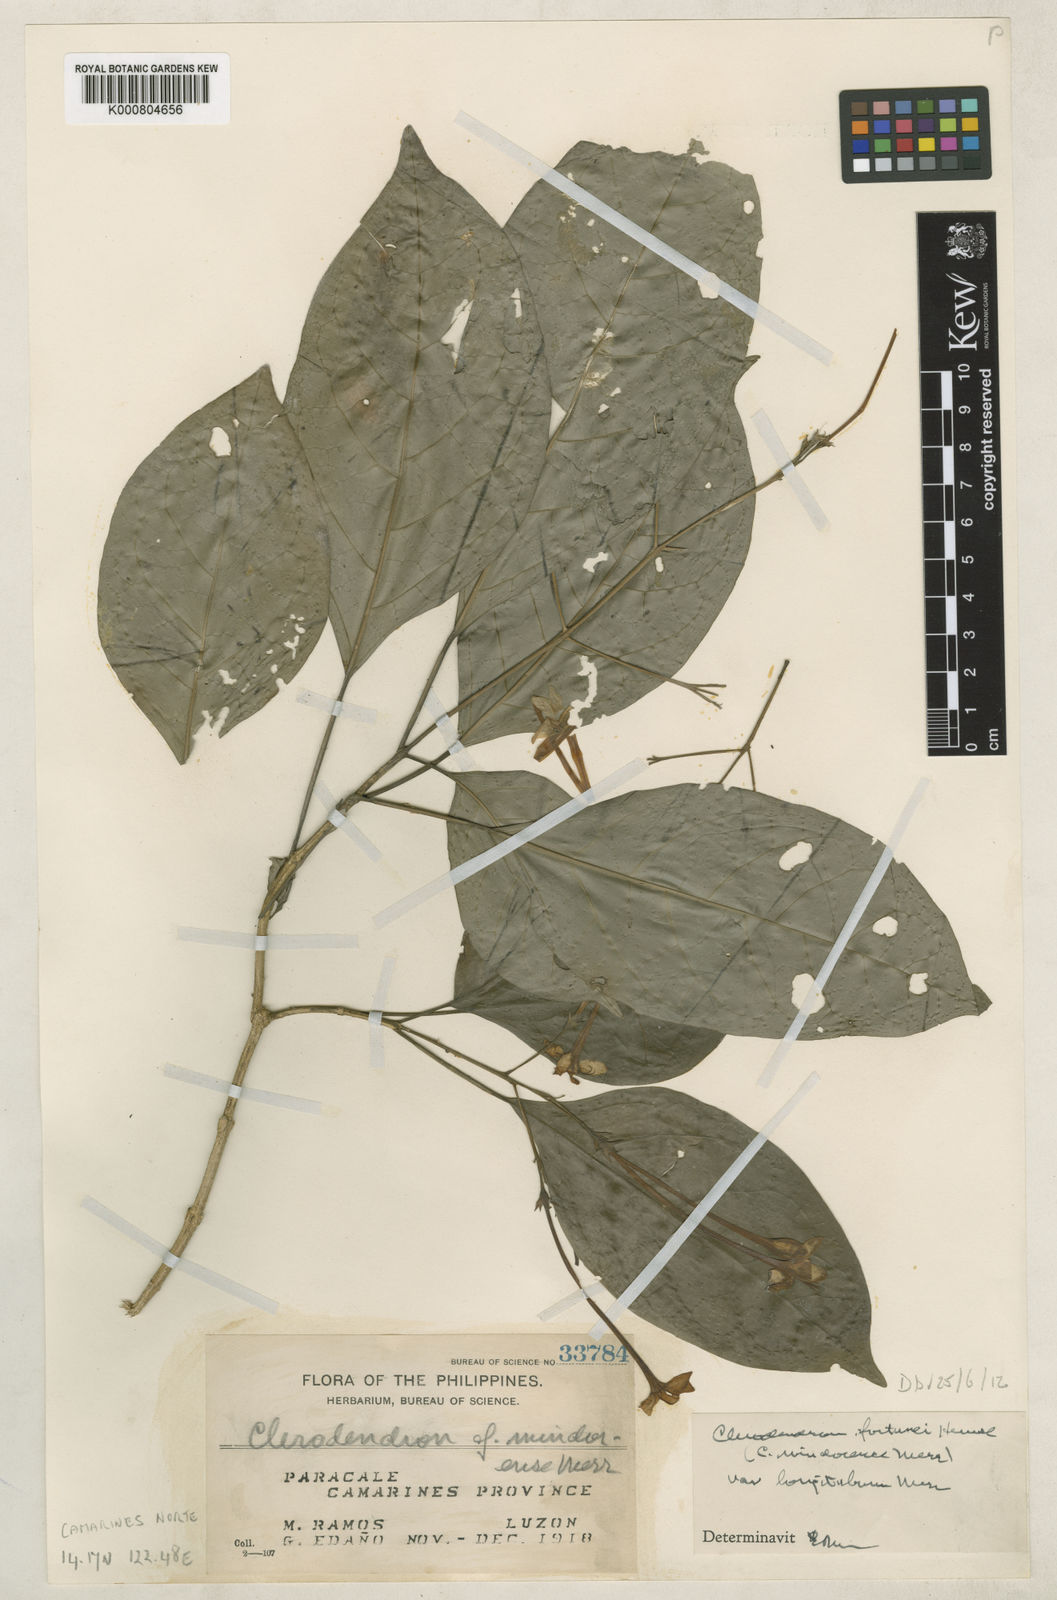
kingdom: Plantae
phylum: Tracheophyta
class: Magnoliopsida
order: Lamiales
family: Lamiaceae
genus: Clerodendrum
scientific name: Clerodendrum klemmei
